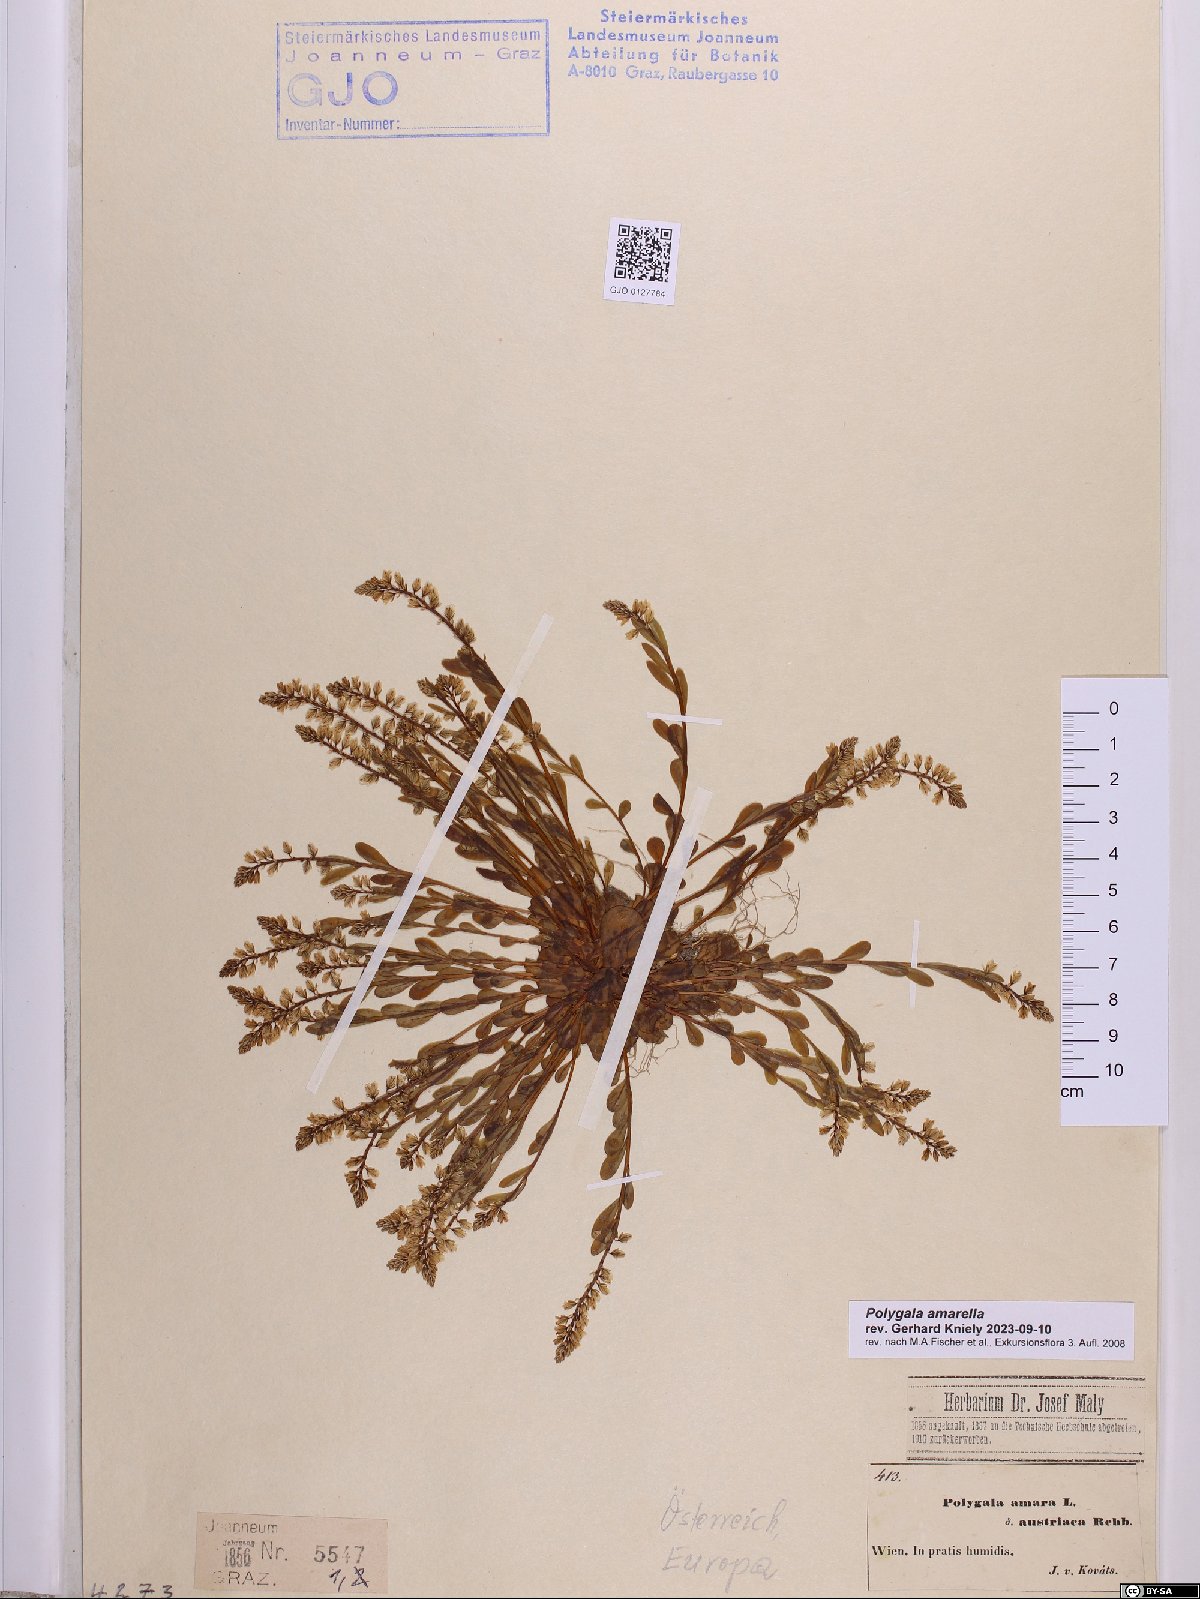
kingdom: Plantae
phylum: Tracheophyta
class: Magnoliopsida
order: Fabales
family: Polygalaceae
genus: Polygala
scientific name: Polygala amarella
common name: Dwarf milkwort
